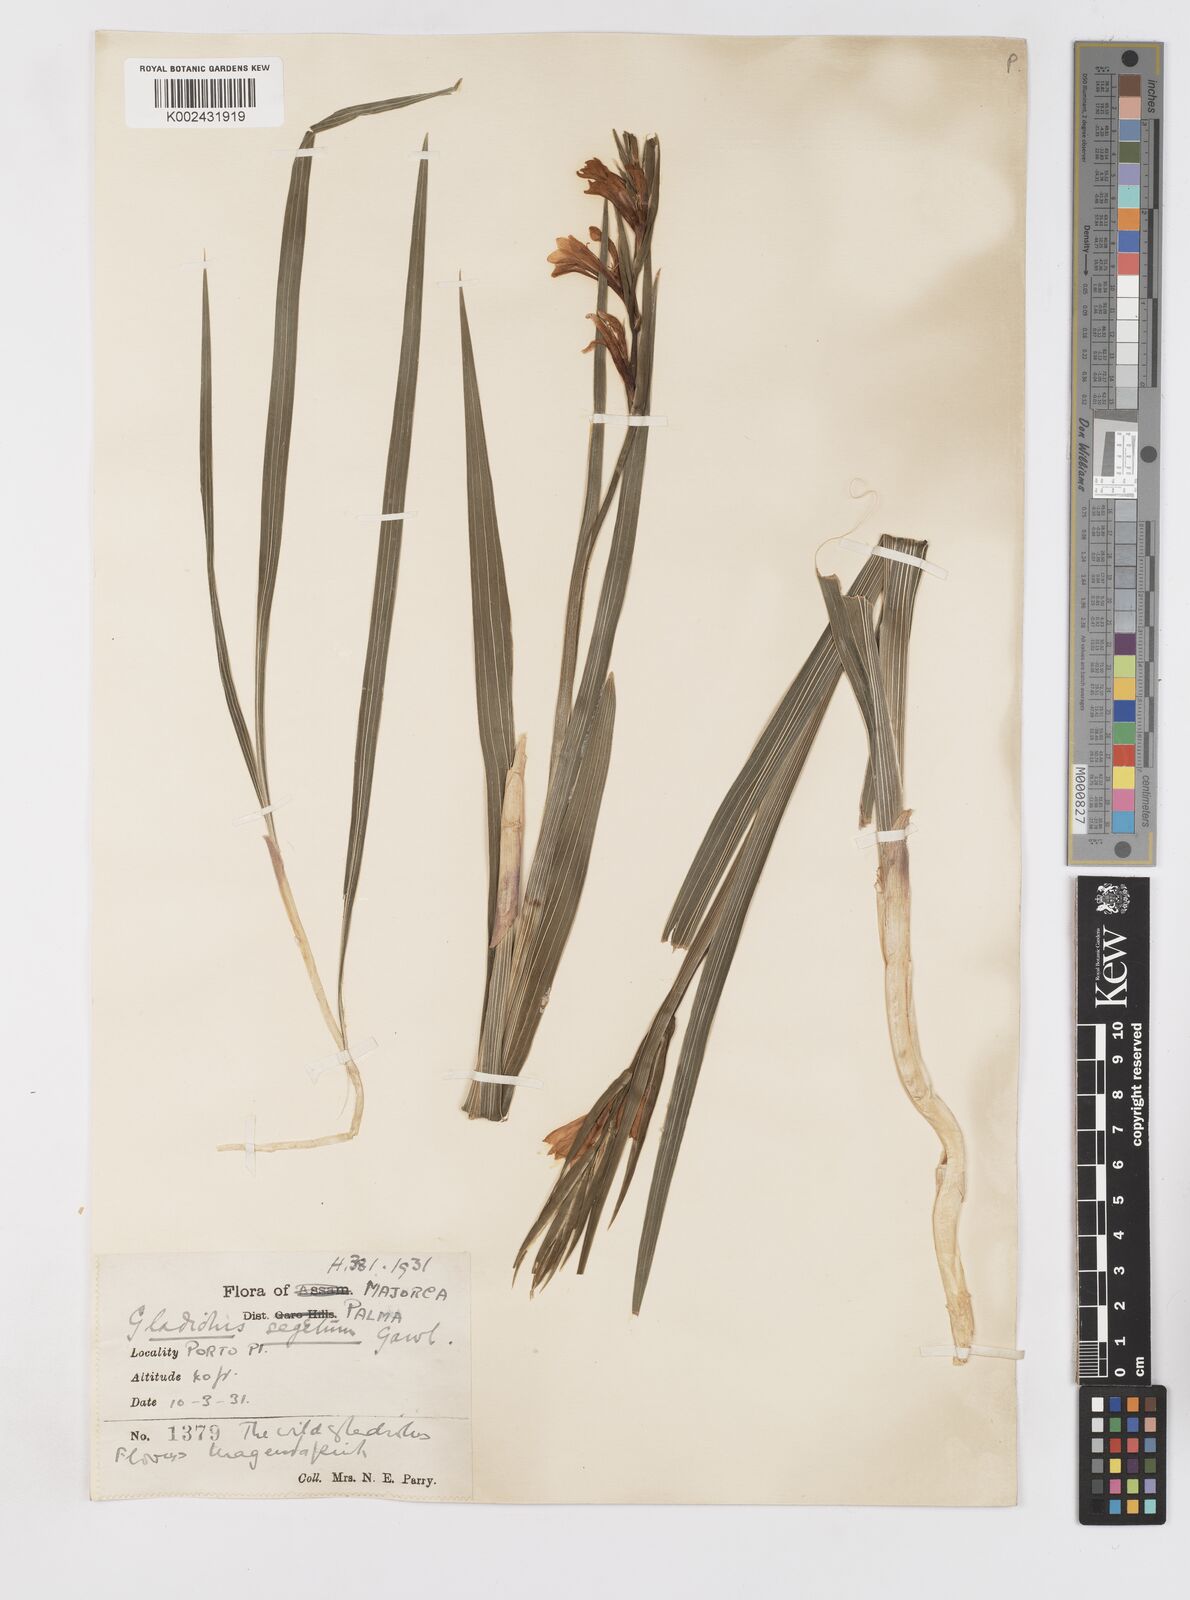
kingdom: Plantae
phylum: Tracheophyta
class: Liliopsida
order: Asparagales
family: Iridaceae
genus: Gladiolus
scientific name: Gladiolus italicus
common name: Field gladiolus
